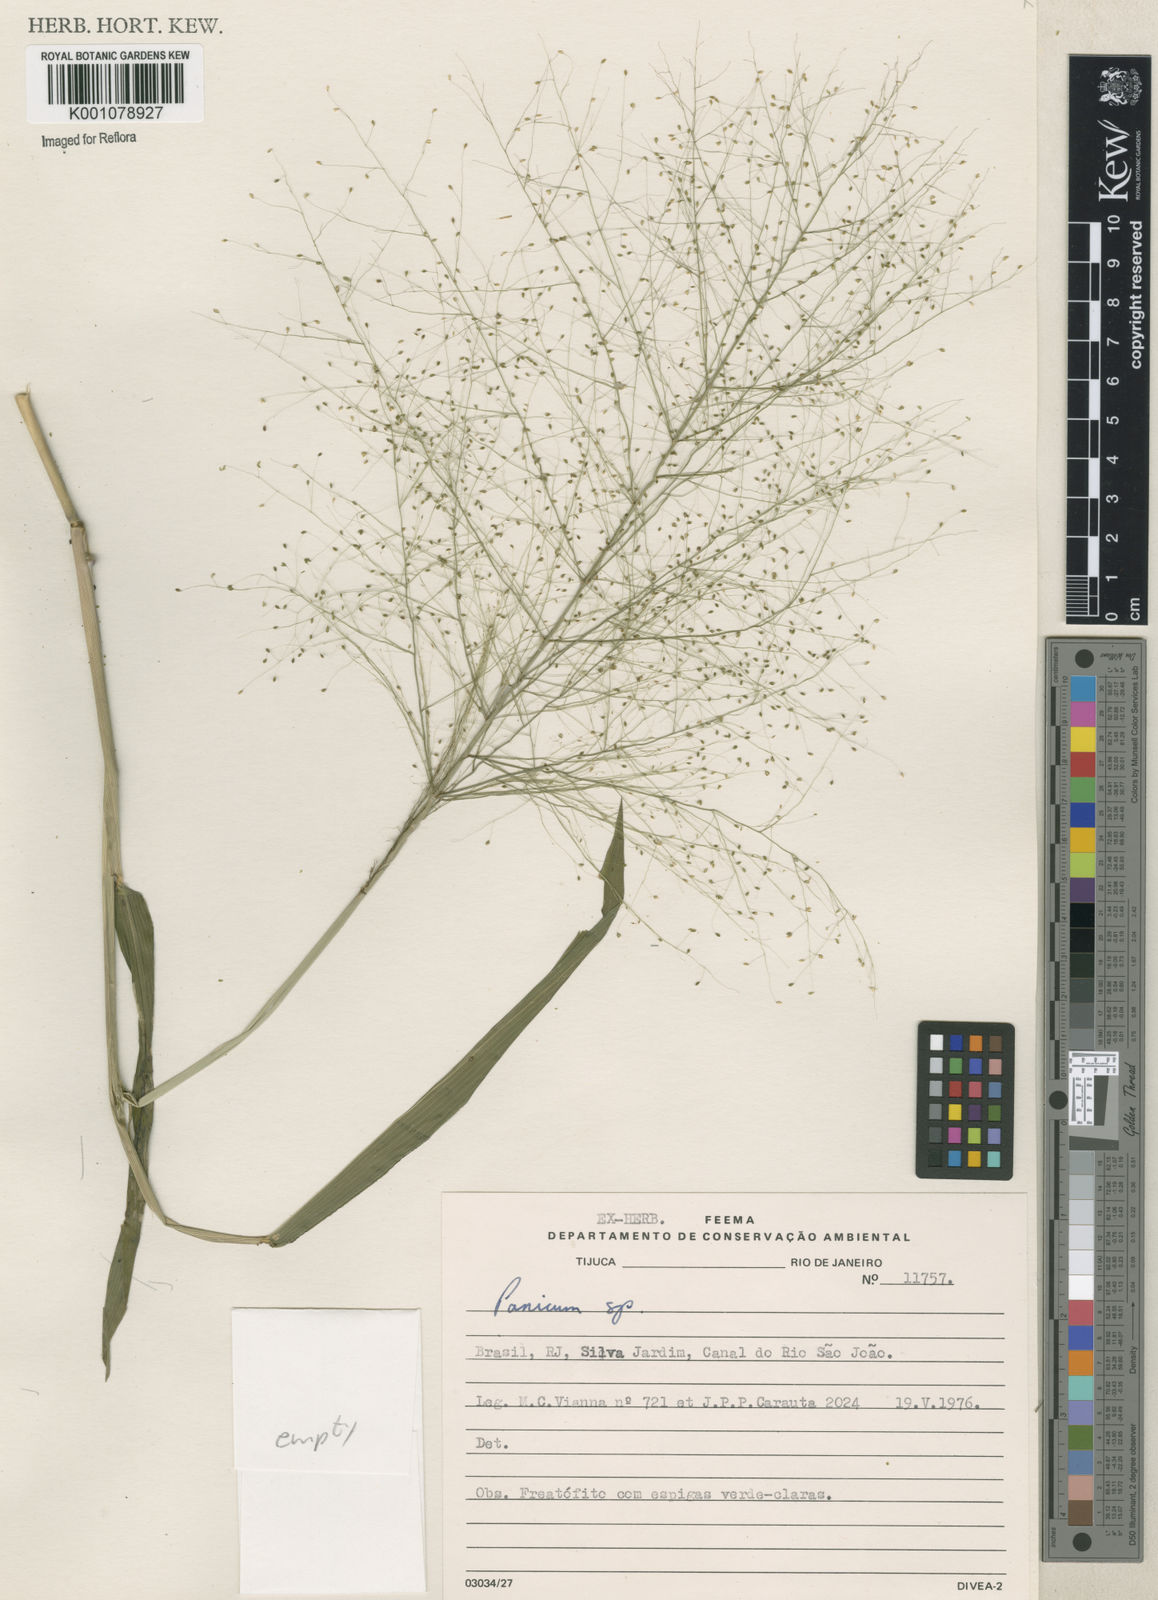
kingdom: Plantae
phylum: Tracheophyta
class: Liliopsida
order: Poales
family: Poaceae
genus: Panicum
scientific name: Panicum
